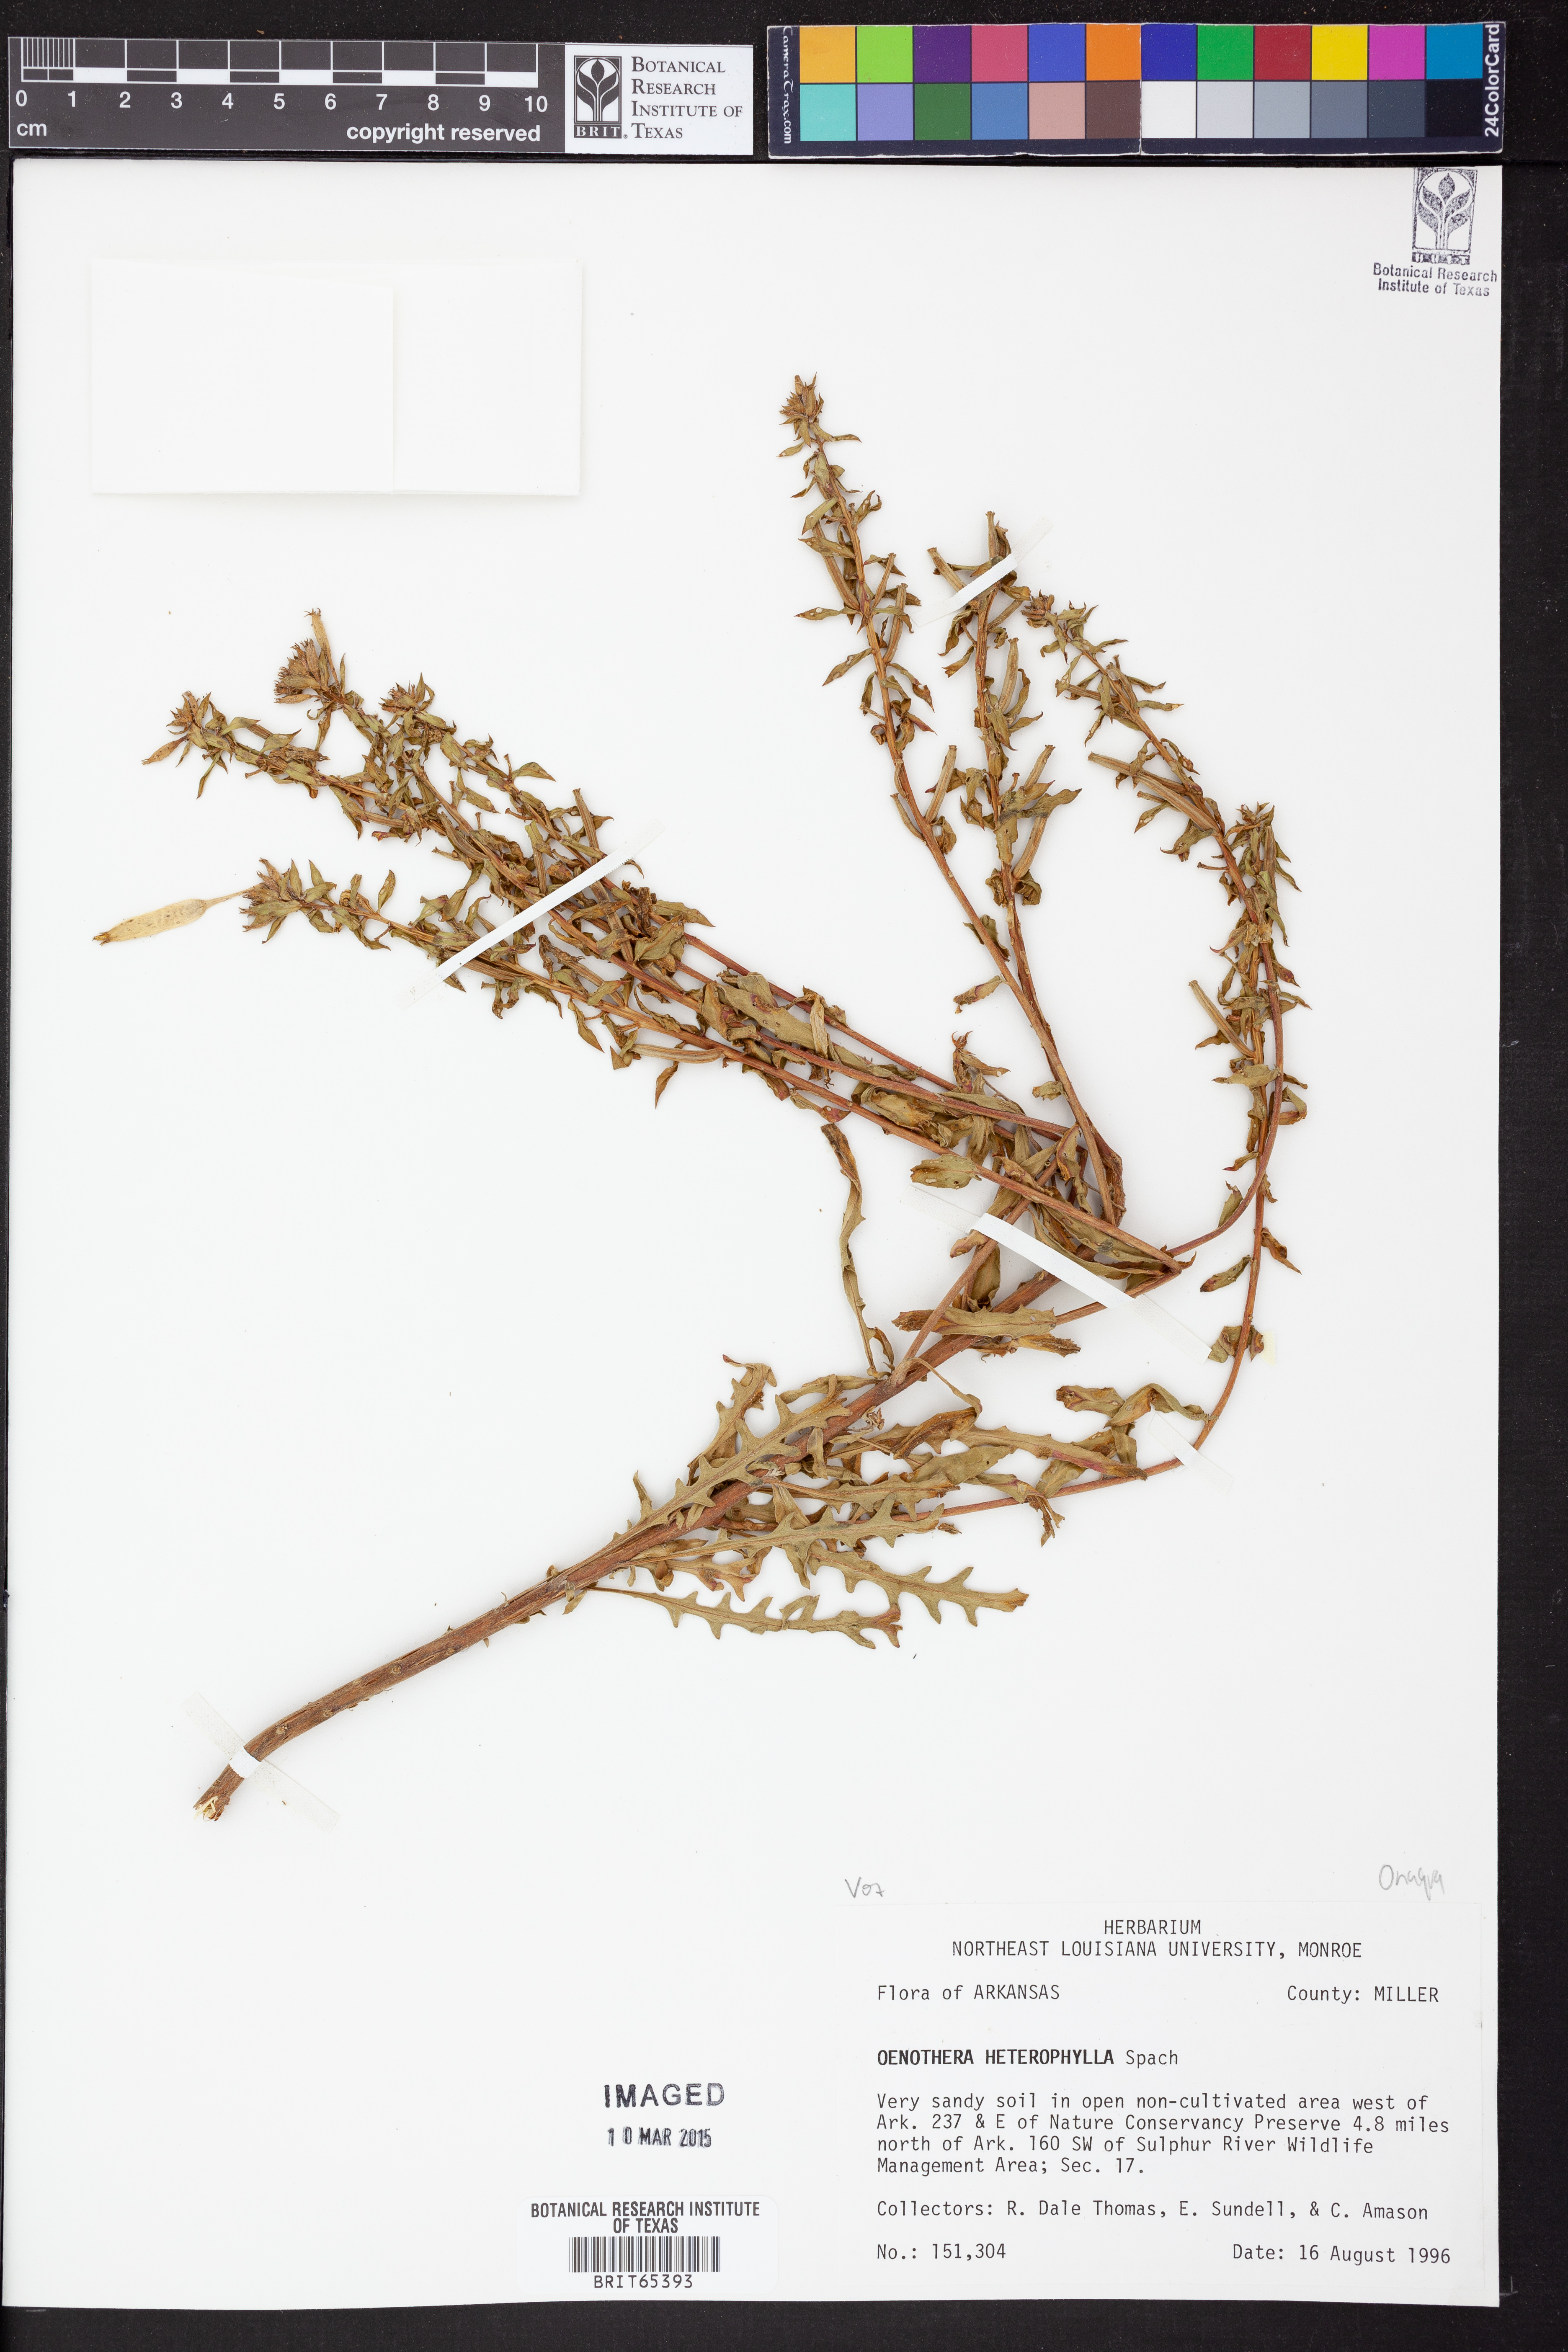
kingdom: Plantae
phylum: Tracheophyta
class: Magnoliopsida
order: Myrtales
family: Onagraceae
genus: Camissonia
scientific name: Camissonia dentata
